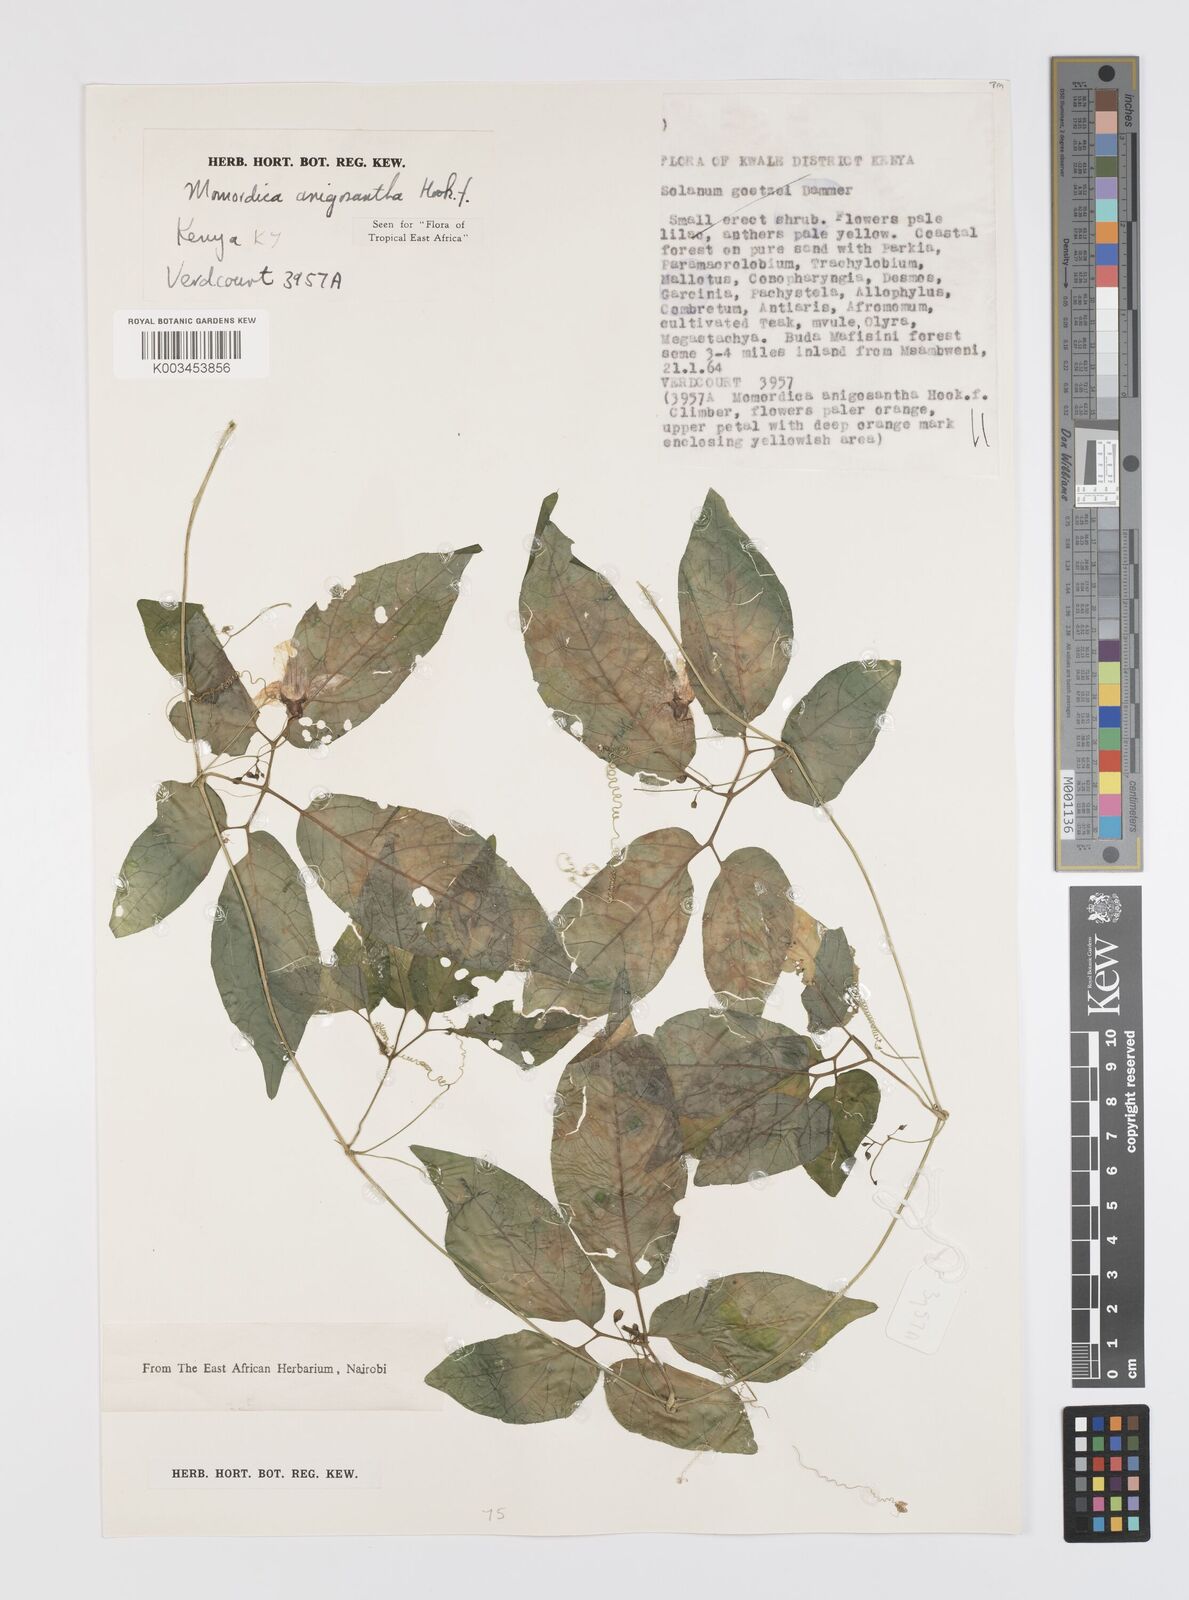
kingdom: Plantae
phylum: Tracheophyta
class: Magnoliopsida
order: Cucurbitales
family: Cucurbitaceae
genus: Momordica
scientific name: Momordica anigosantha
